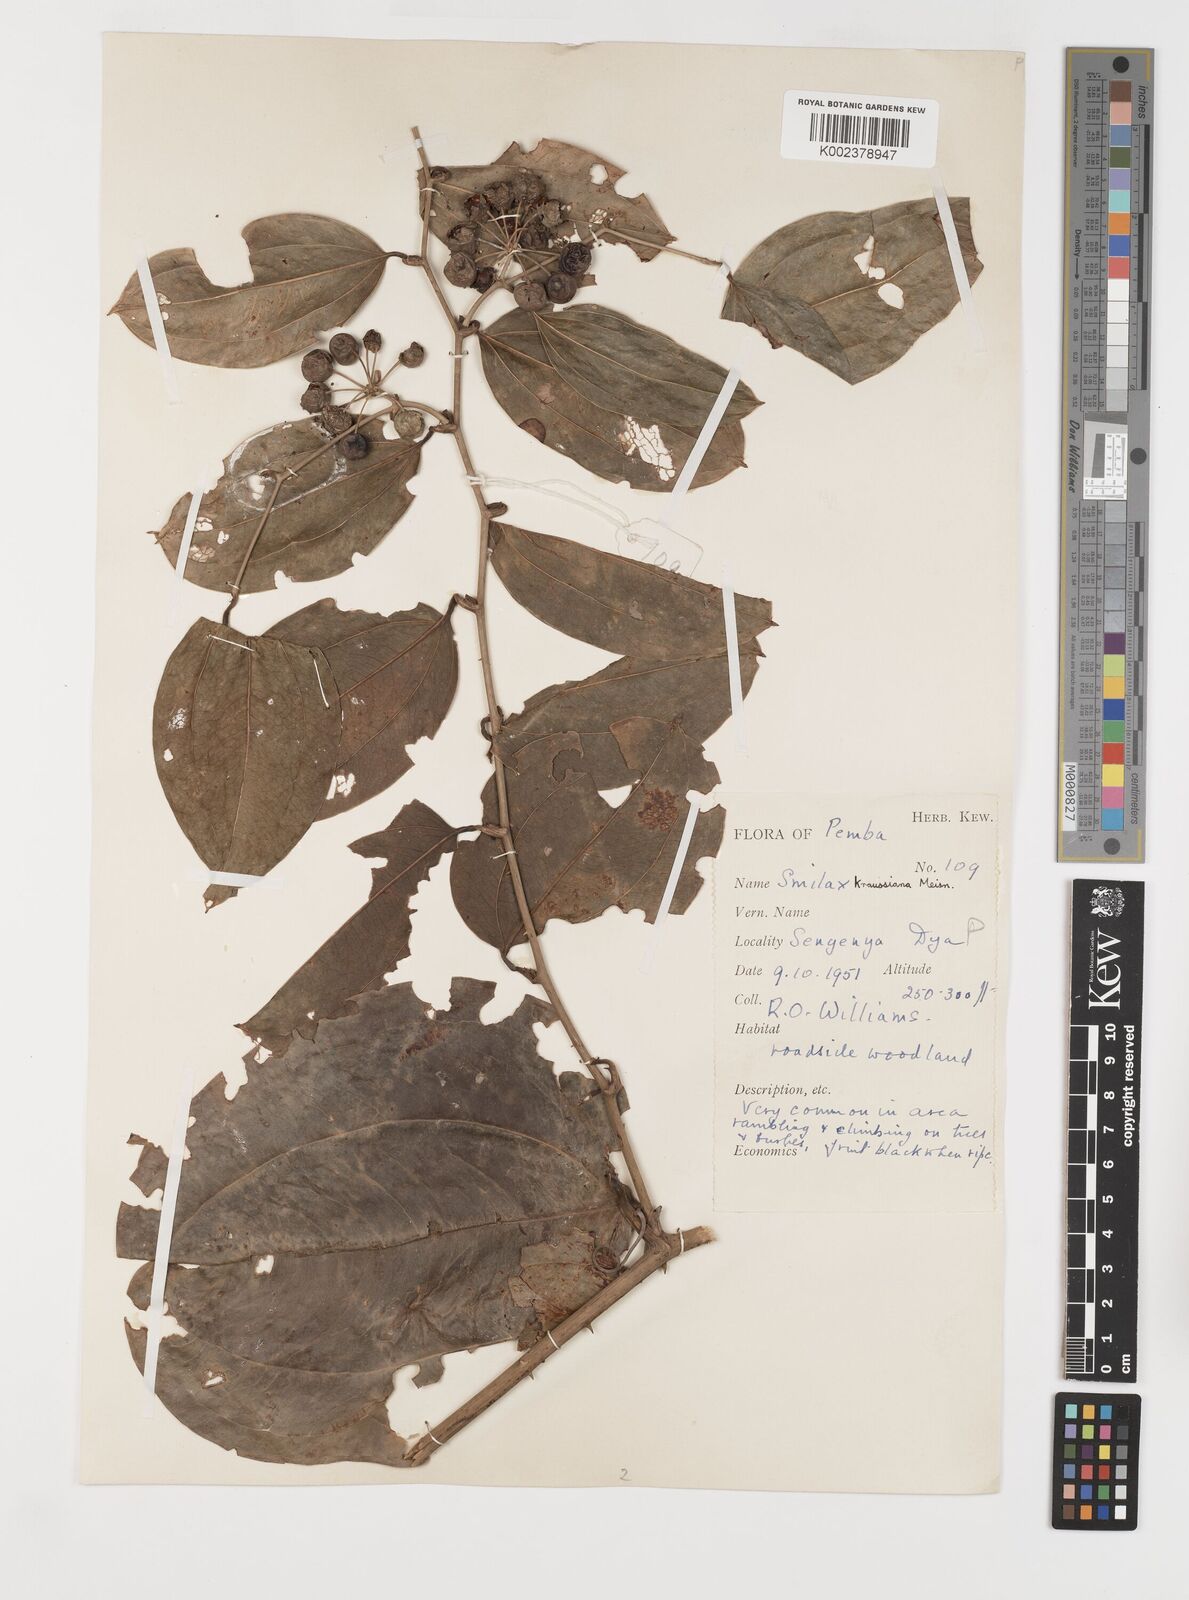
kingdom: Plantae
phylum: Tracheophyta
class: Liliopsida
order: Liliales
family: Smilacaceae
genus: Smilax
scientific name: Smilax anceps
